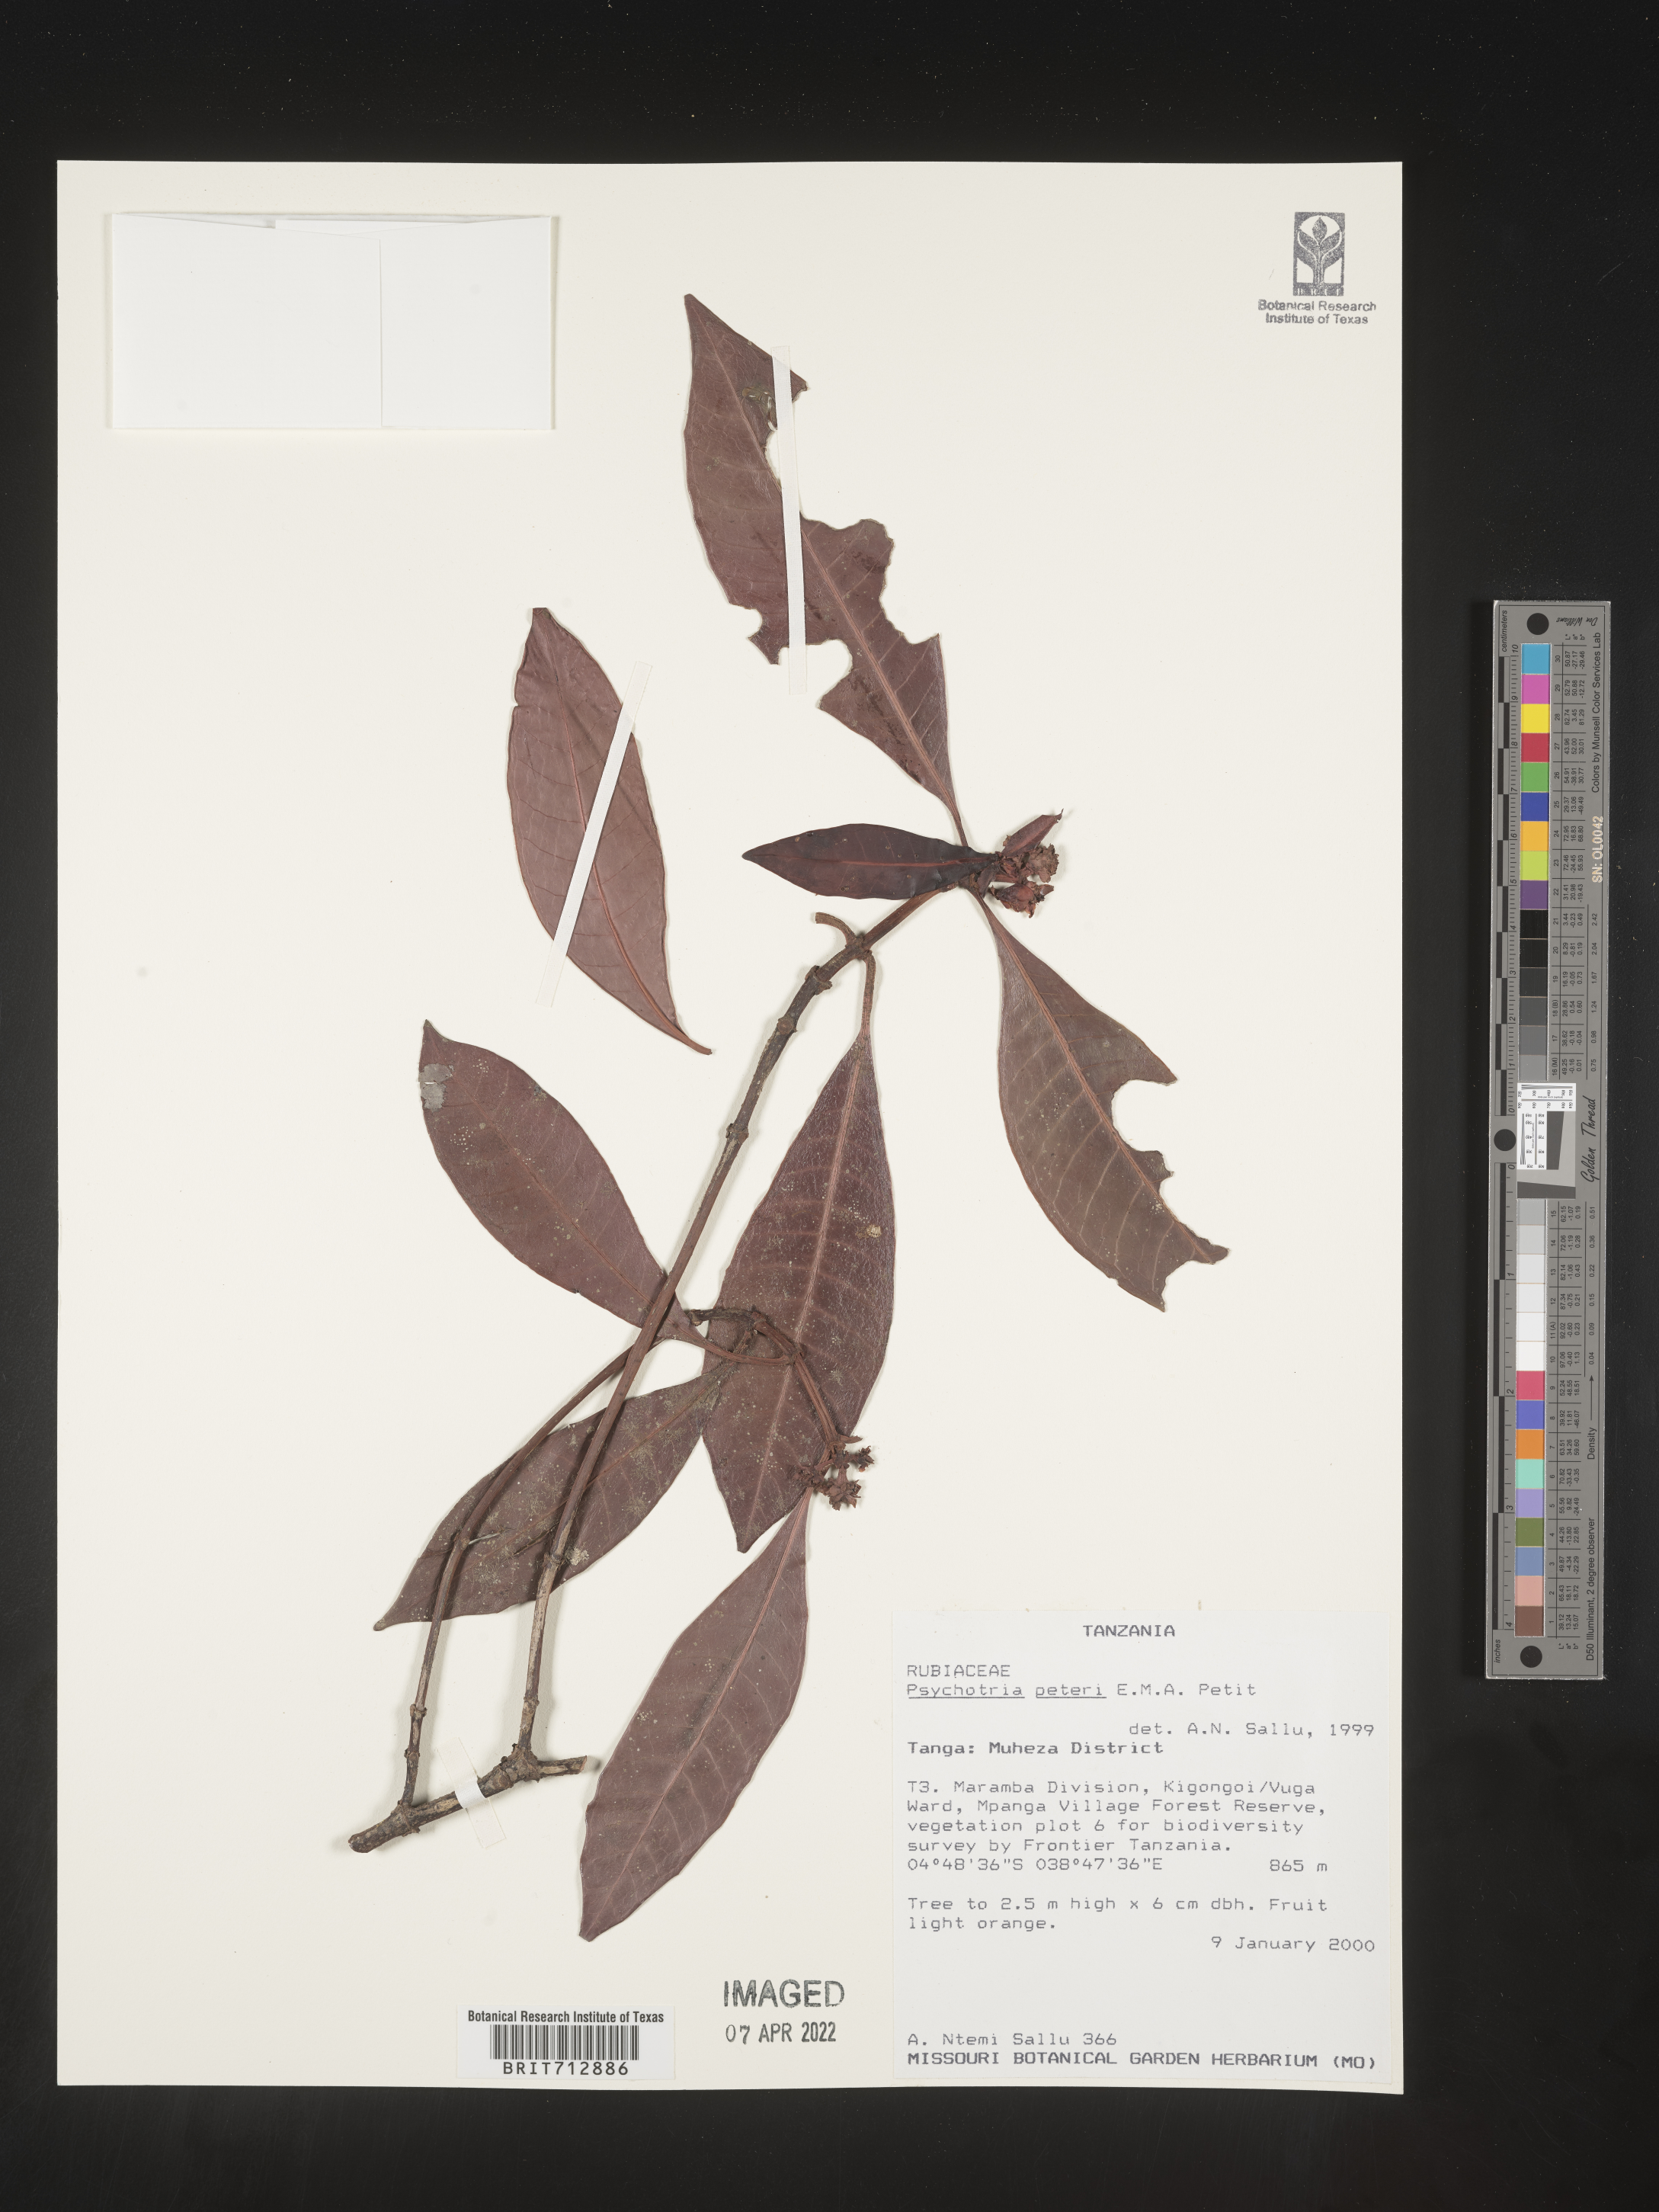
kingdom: Plantae
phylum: Tracheophyta
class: Magnoliopsida
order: Gentianales
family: Rubiaceae
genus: Psychotria
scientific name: Psychotria
